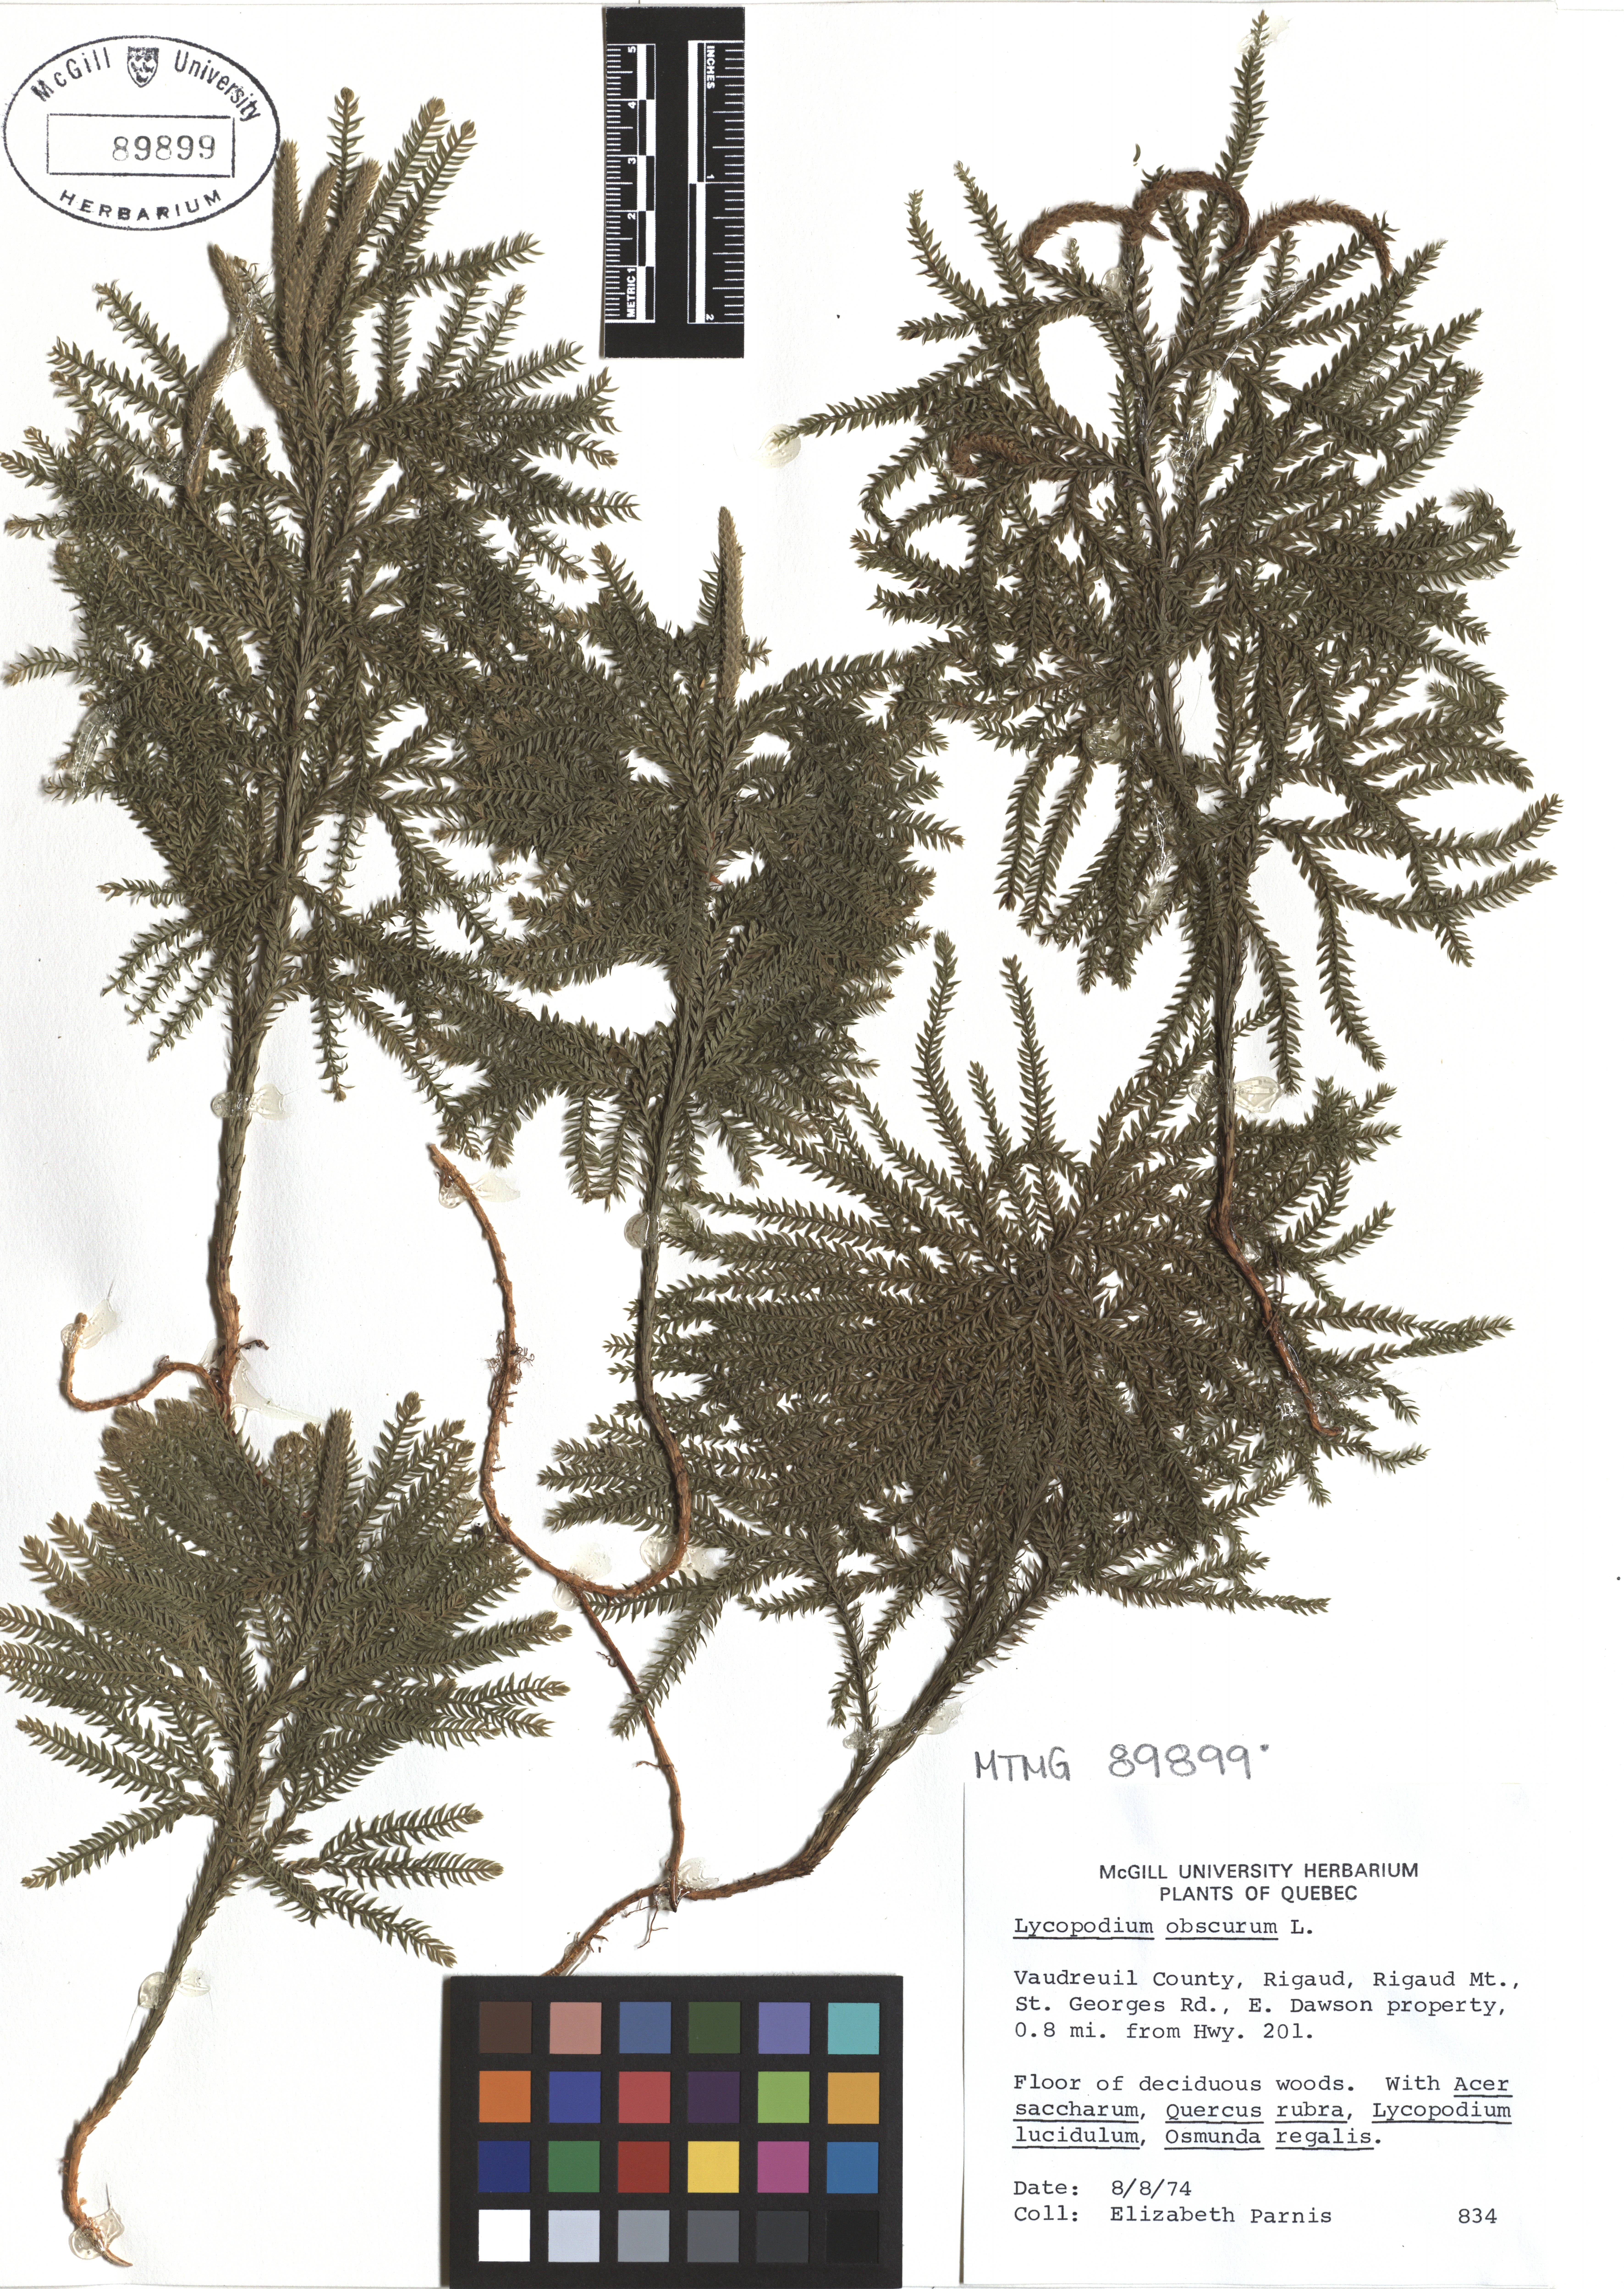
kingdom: Plantae
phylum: Tracheophyta
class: Lycopodiopsida
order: Lycopodiales
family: Lycopodiaceae
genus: Dendrolycopodium
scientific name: Dendrolycopodium obscurum
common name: Common ground-pine
